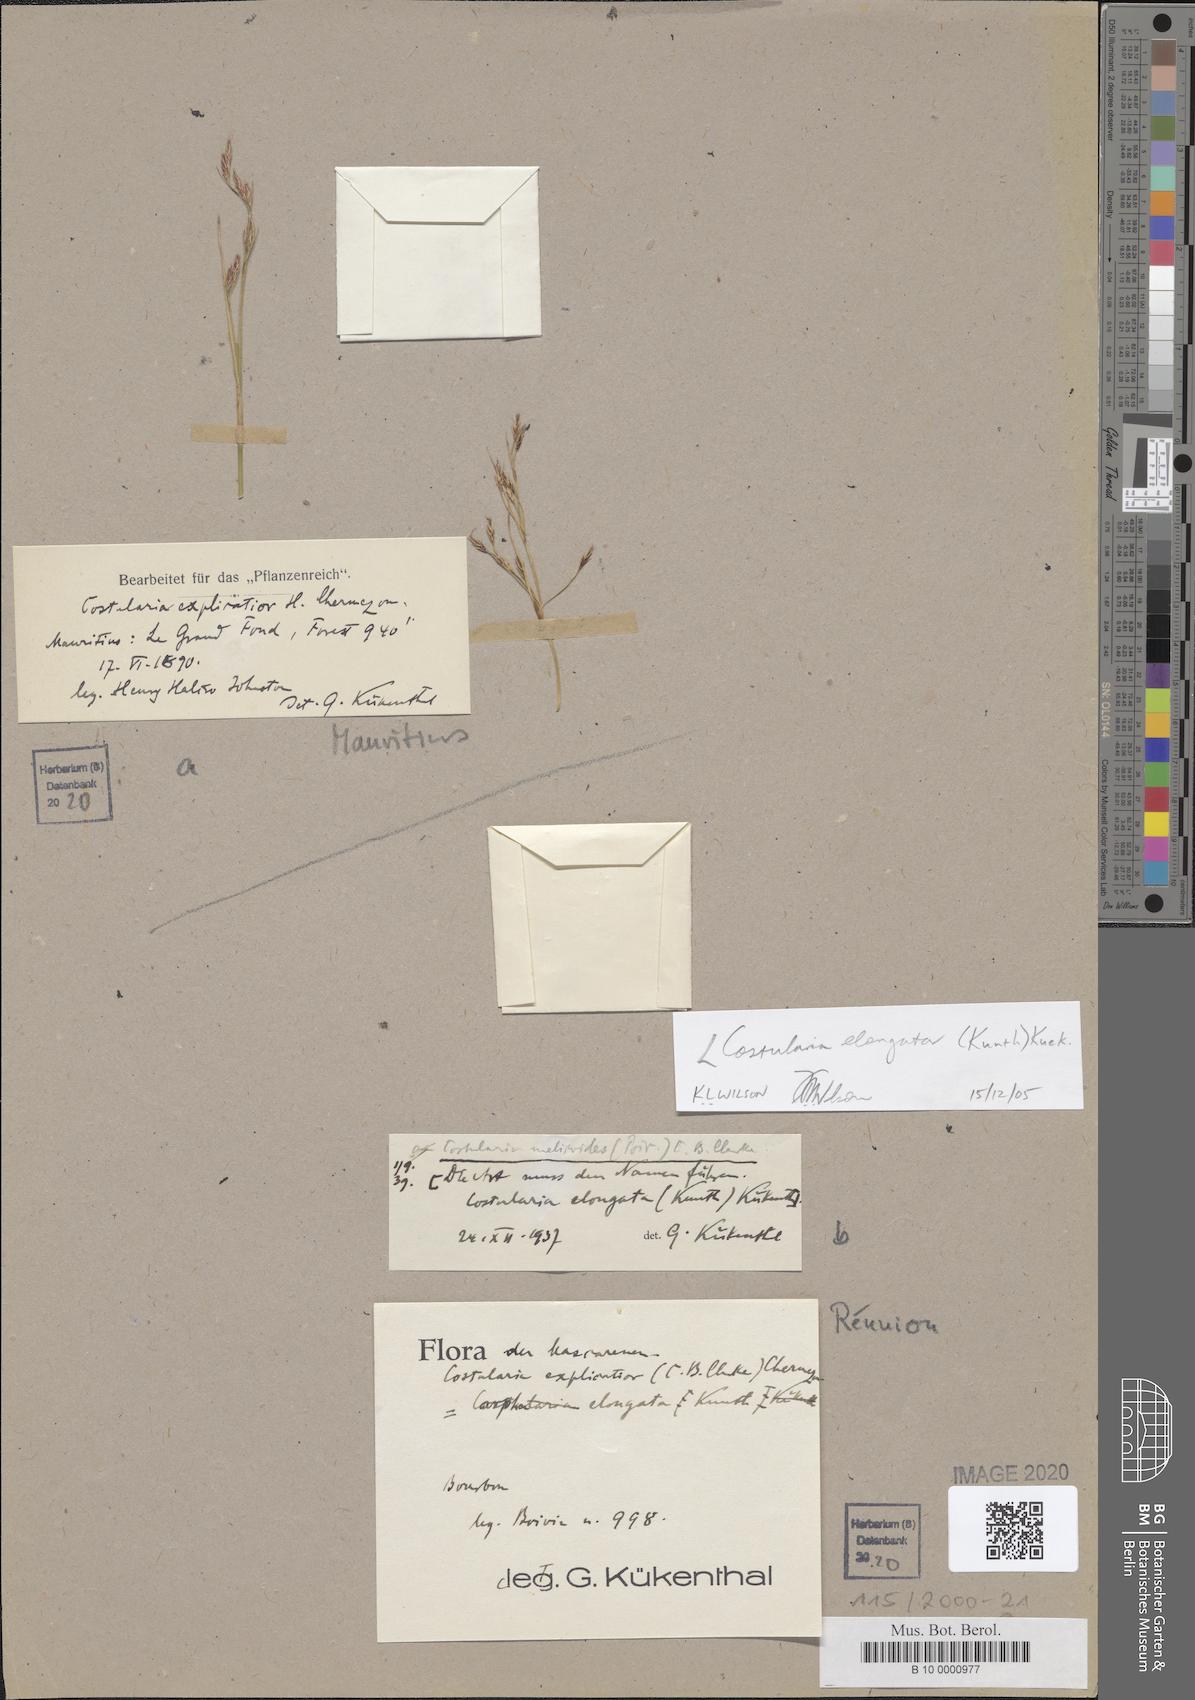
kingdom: Plantae
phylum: Tracheophyta
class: Liliopsida
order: Poales
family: Cyperaceae
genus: Costularia
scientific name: Costularia melicoides
